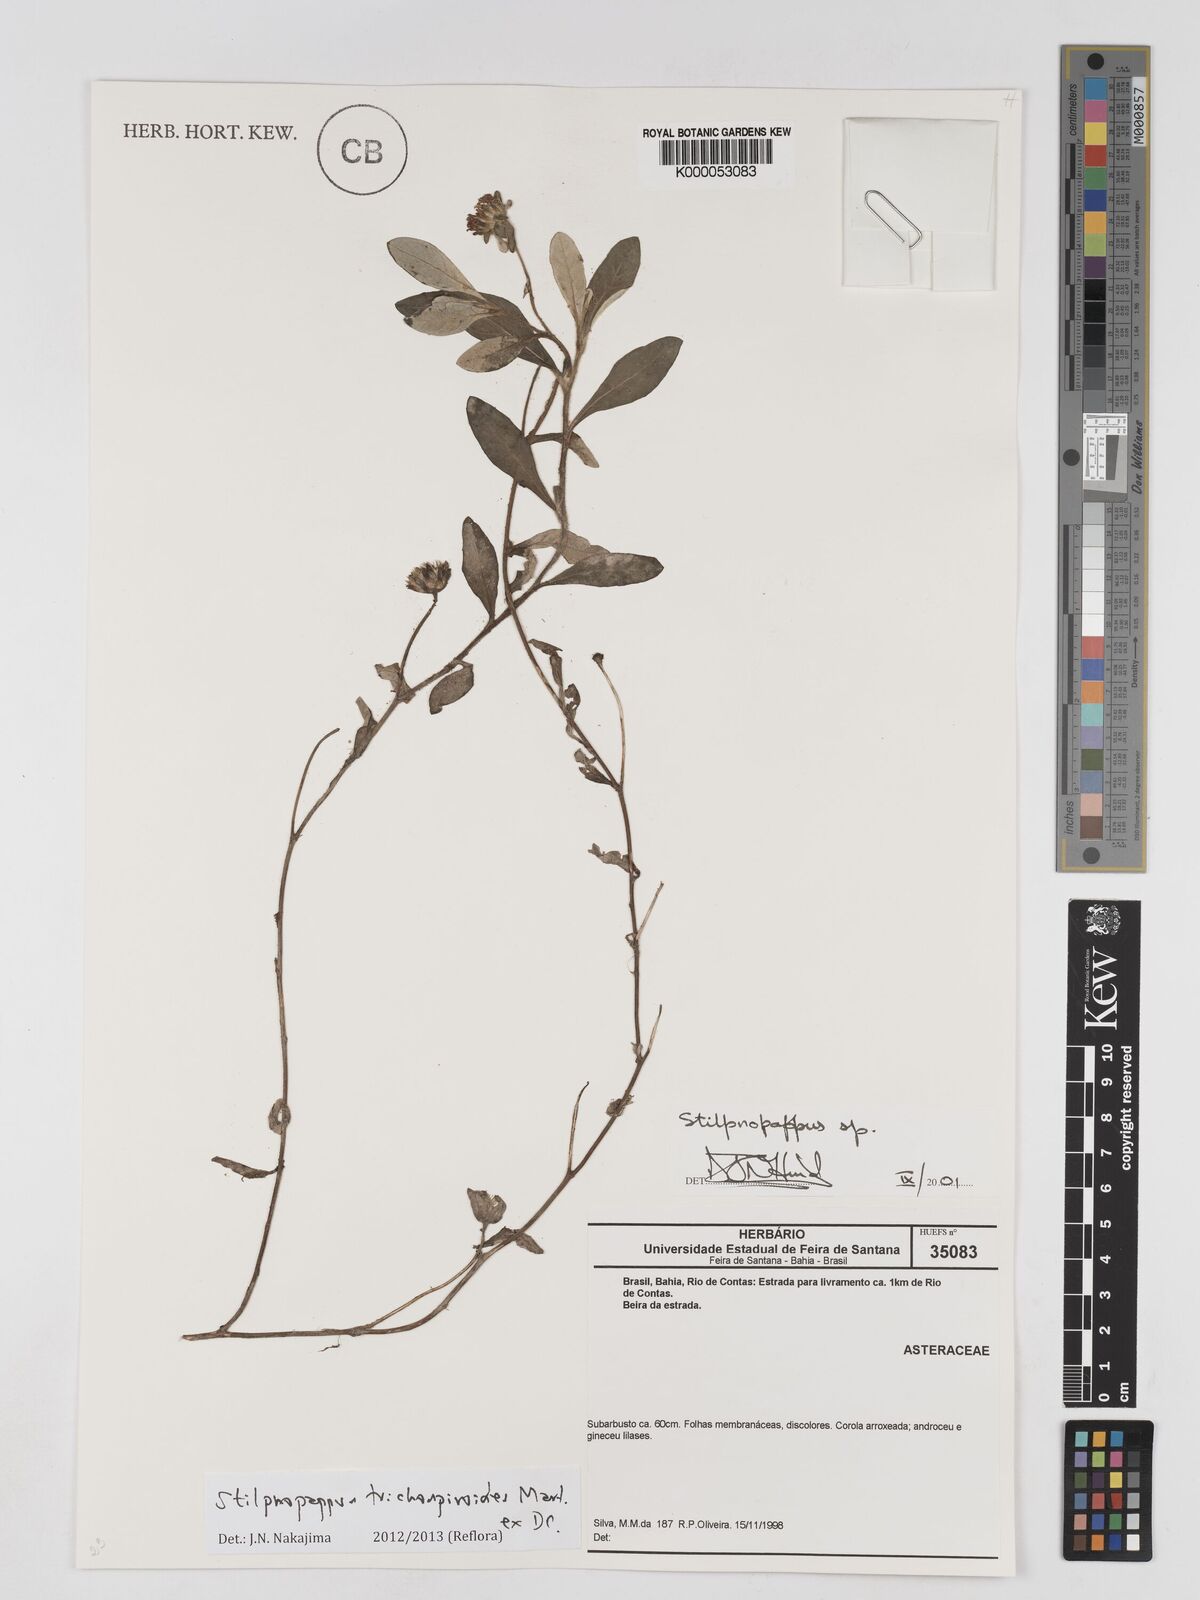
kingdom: Plantae
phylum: Tracheophyta
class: Magnoliopsida
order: Asterales
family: Asteraceae
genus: Stilpnopappus
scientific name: Stilpnopappus
